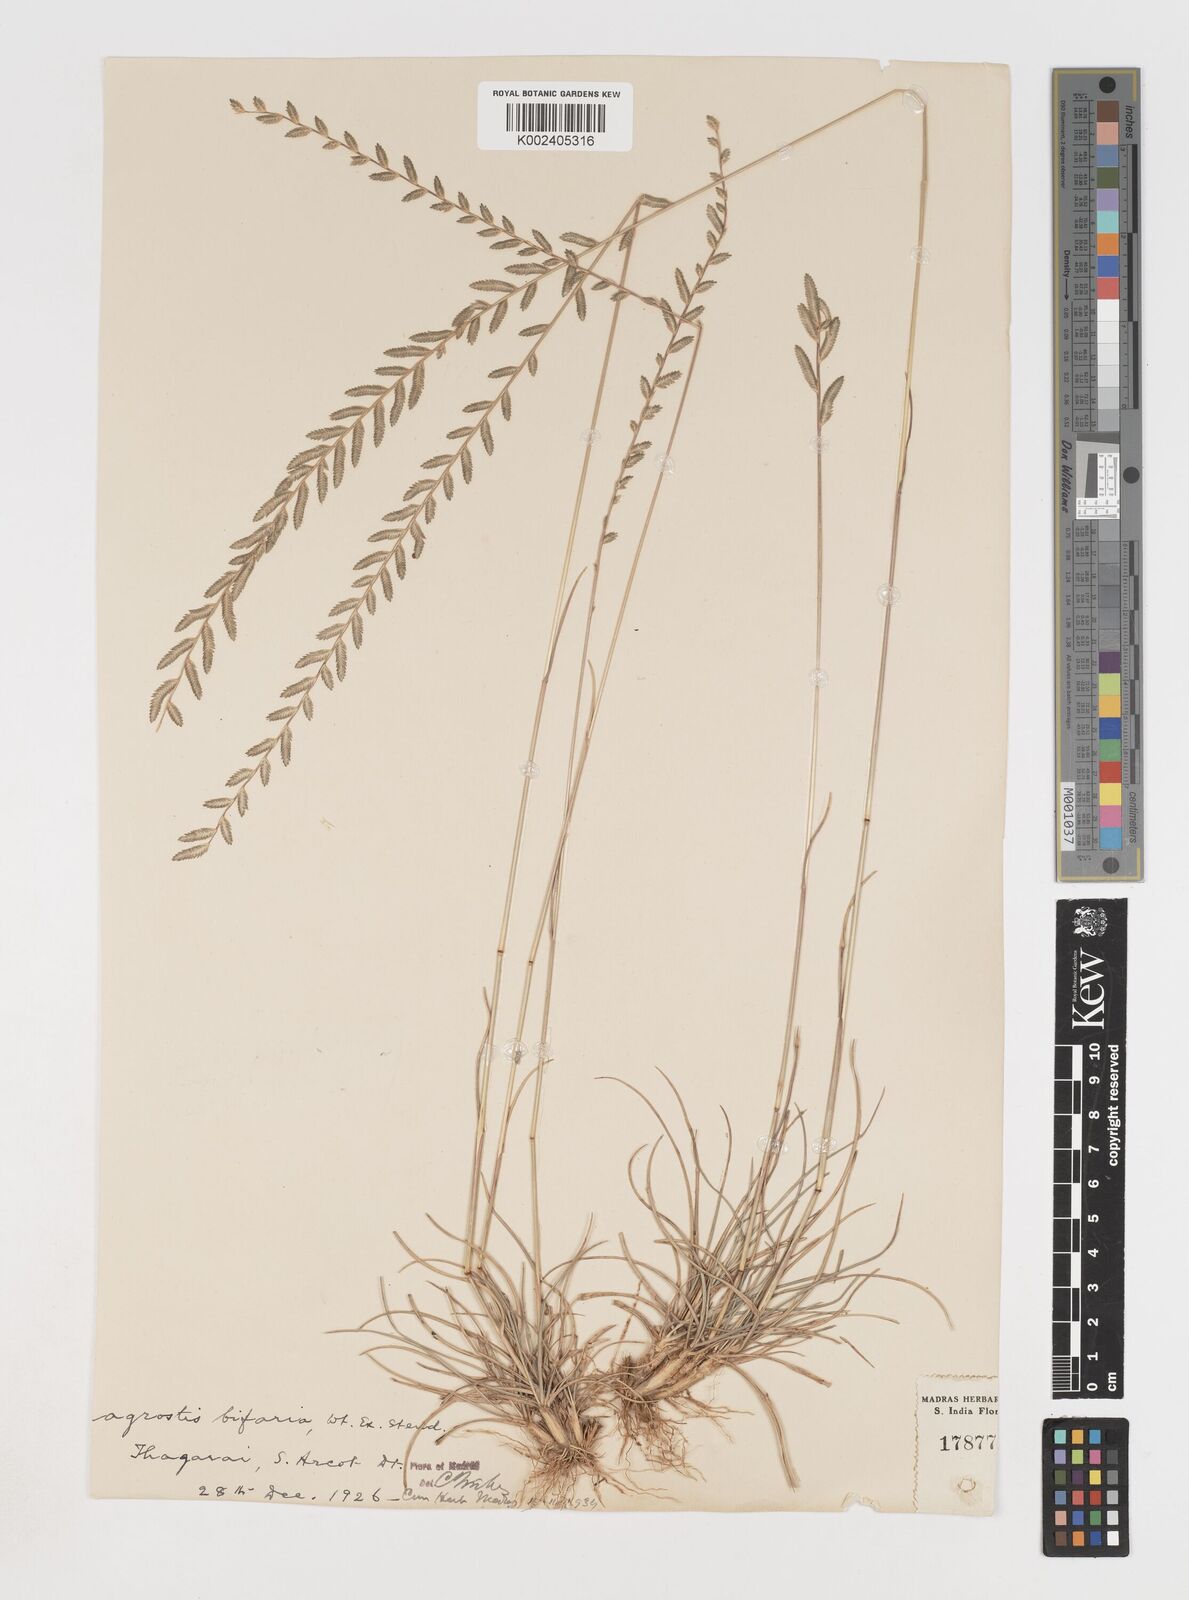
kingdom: Plantae
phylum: Tracheophyta
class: Liliopsida
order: Poales
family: Poaceae
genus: Eragrostiella
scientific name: Eragrostiella bifaria
